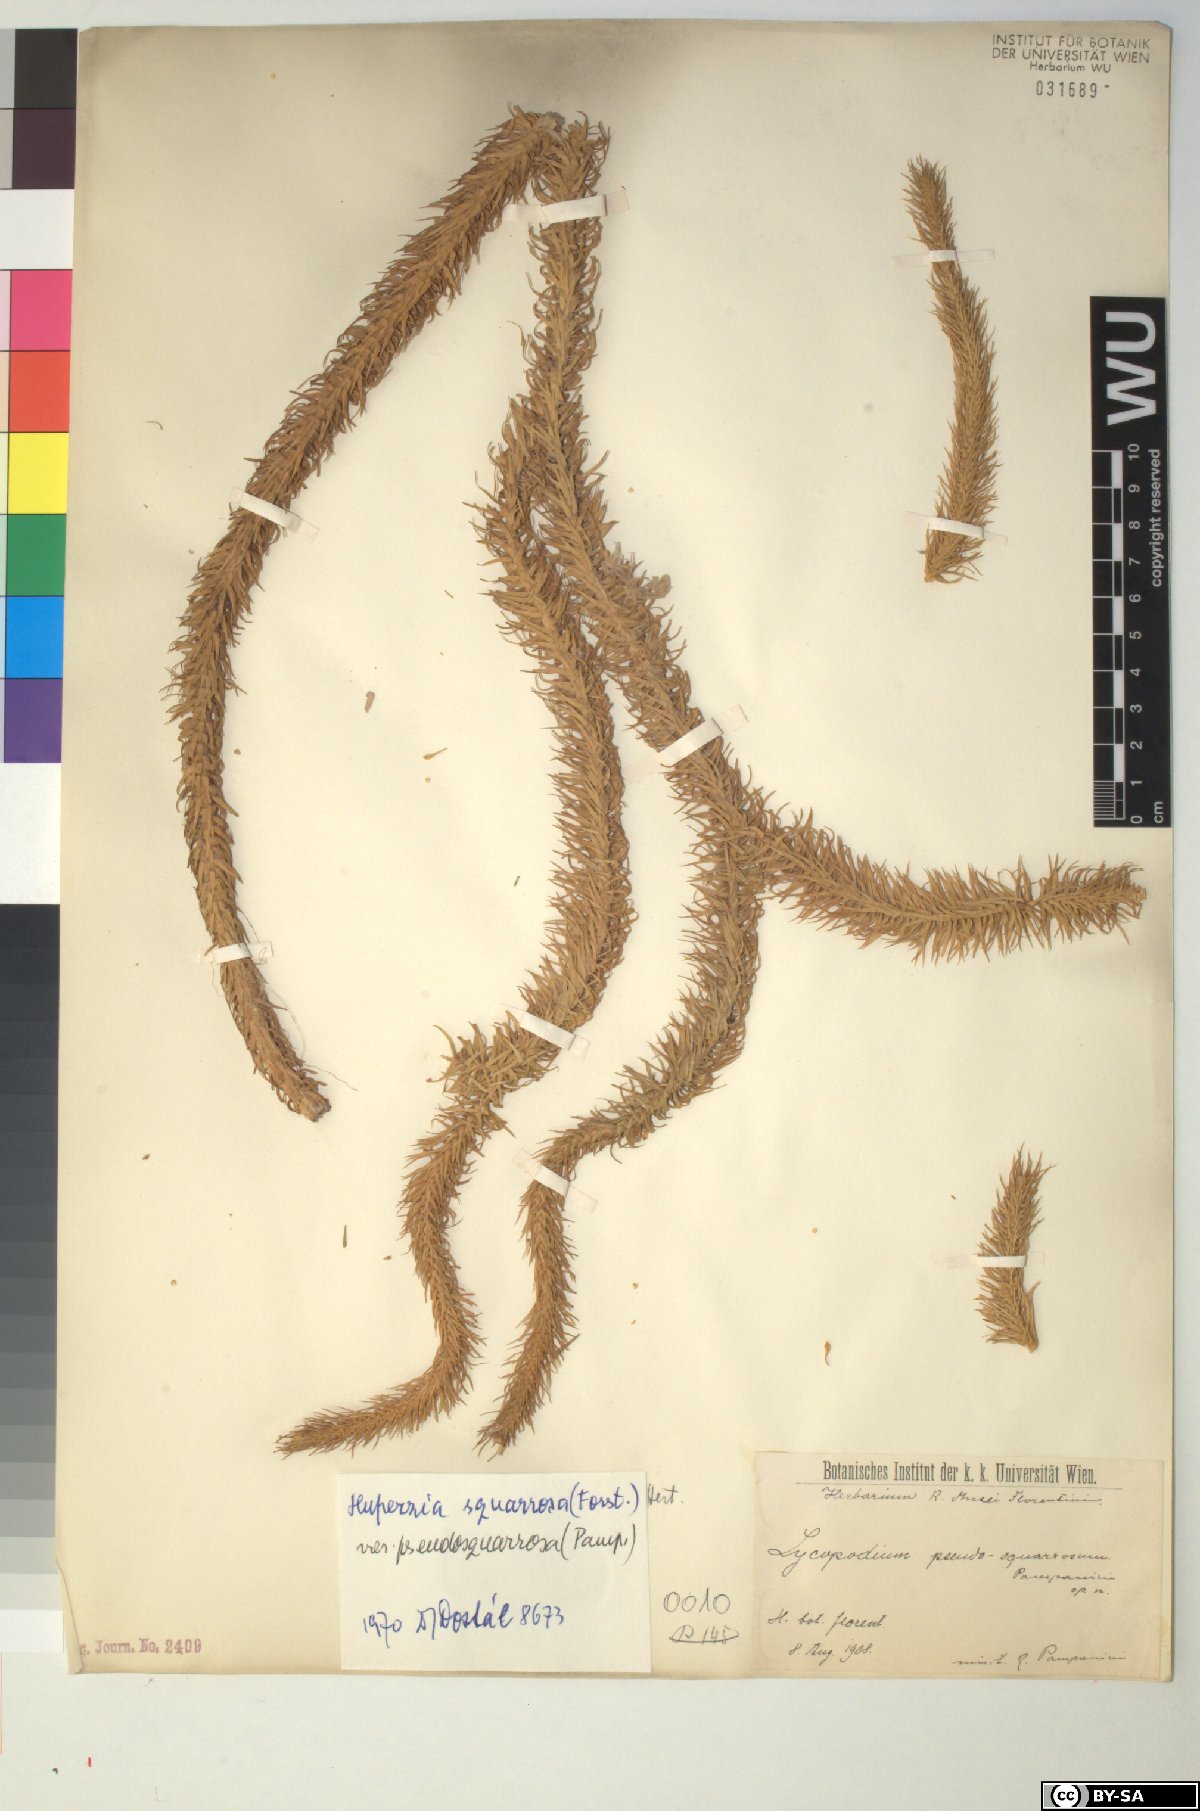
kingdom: Plantae
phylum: Tracheophyta
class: Lycopodiopsida
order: Lycopodiales
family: Lycopodiaceae
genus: Phlegmariurus
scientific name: Phlegmariurus squarrosus
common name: Rock tassel-fern
